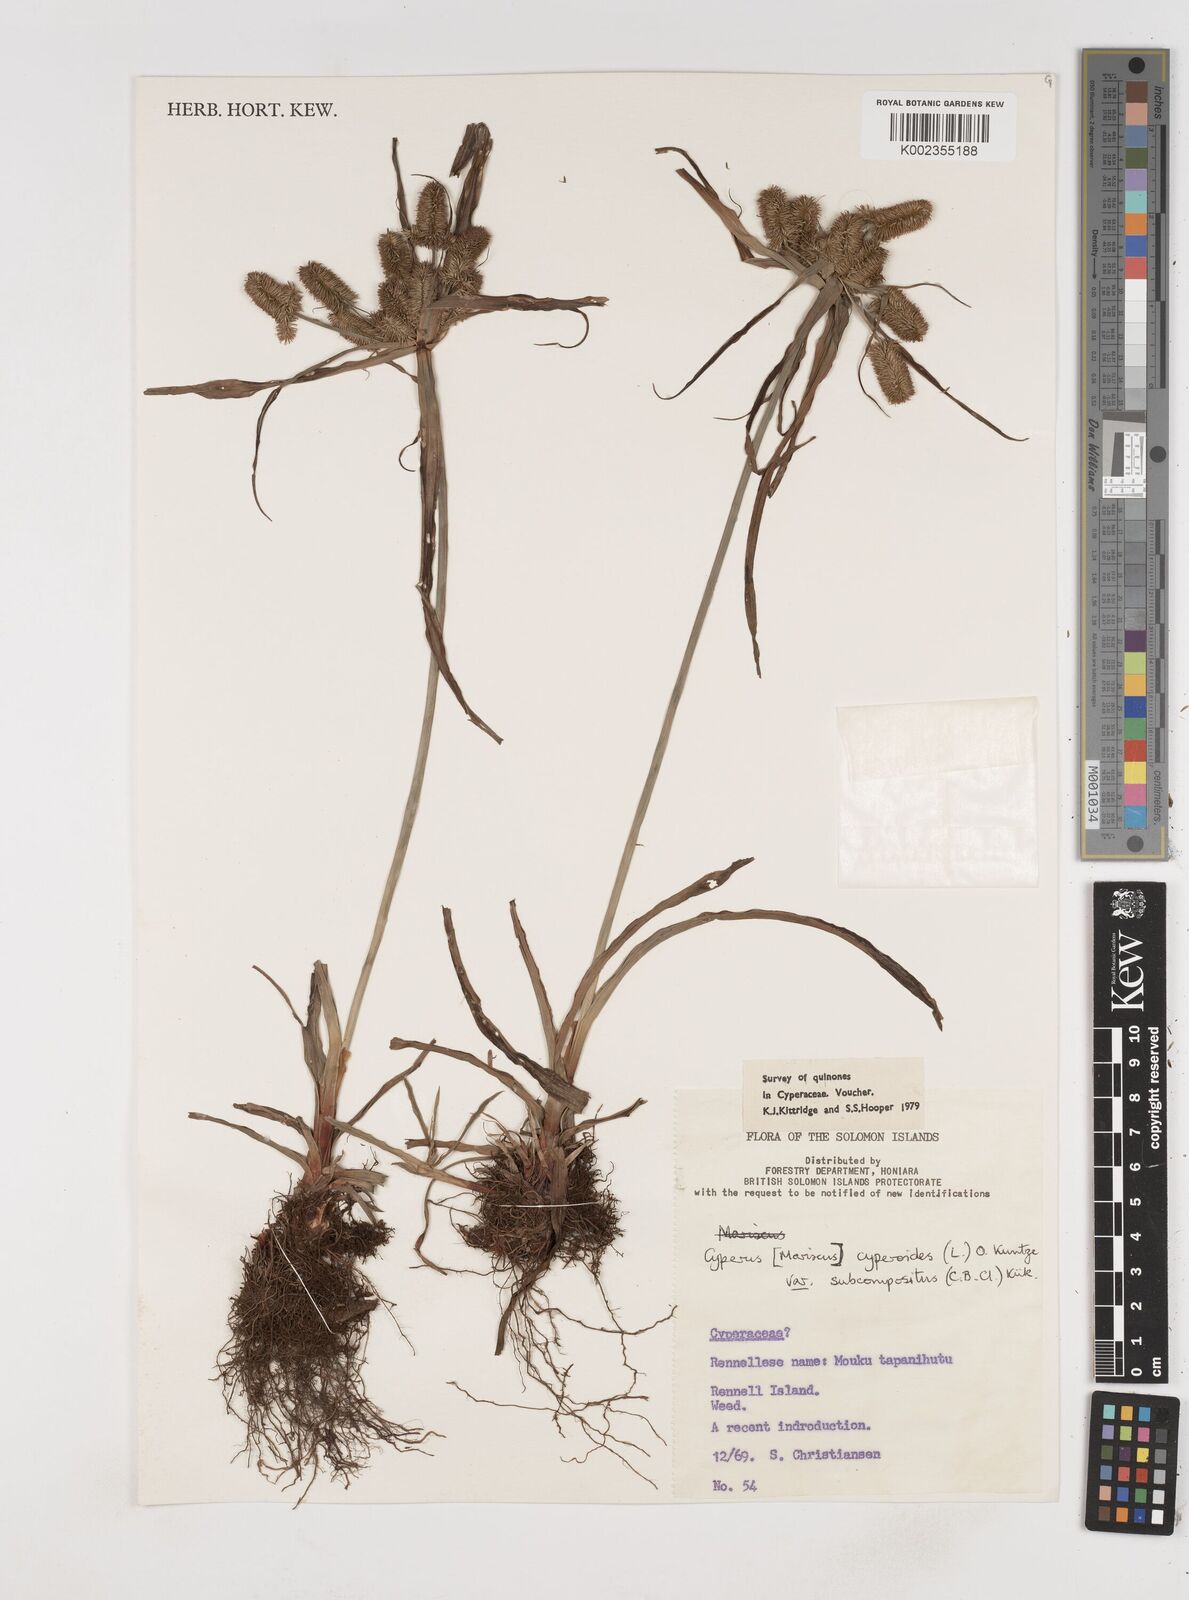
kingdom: Plantae
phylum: Tracheophyta
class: Liliopsida
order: Poales
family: Cyperaceae
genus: Cyperus
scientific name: Cyperus cyperoides
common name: Pacific island flat sedge
